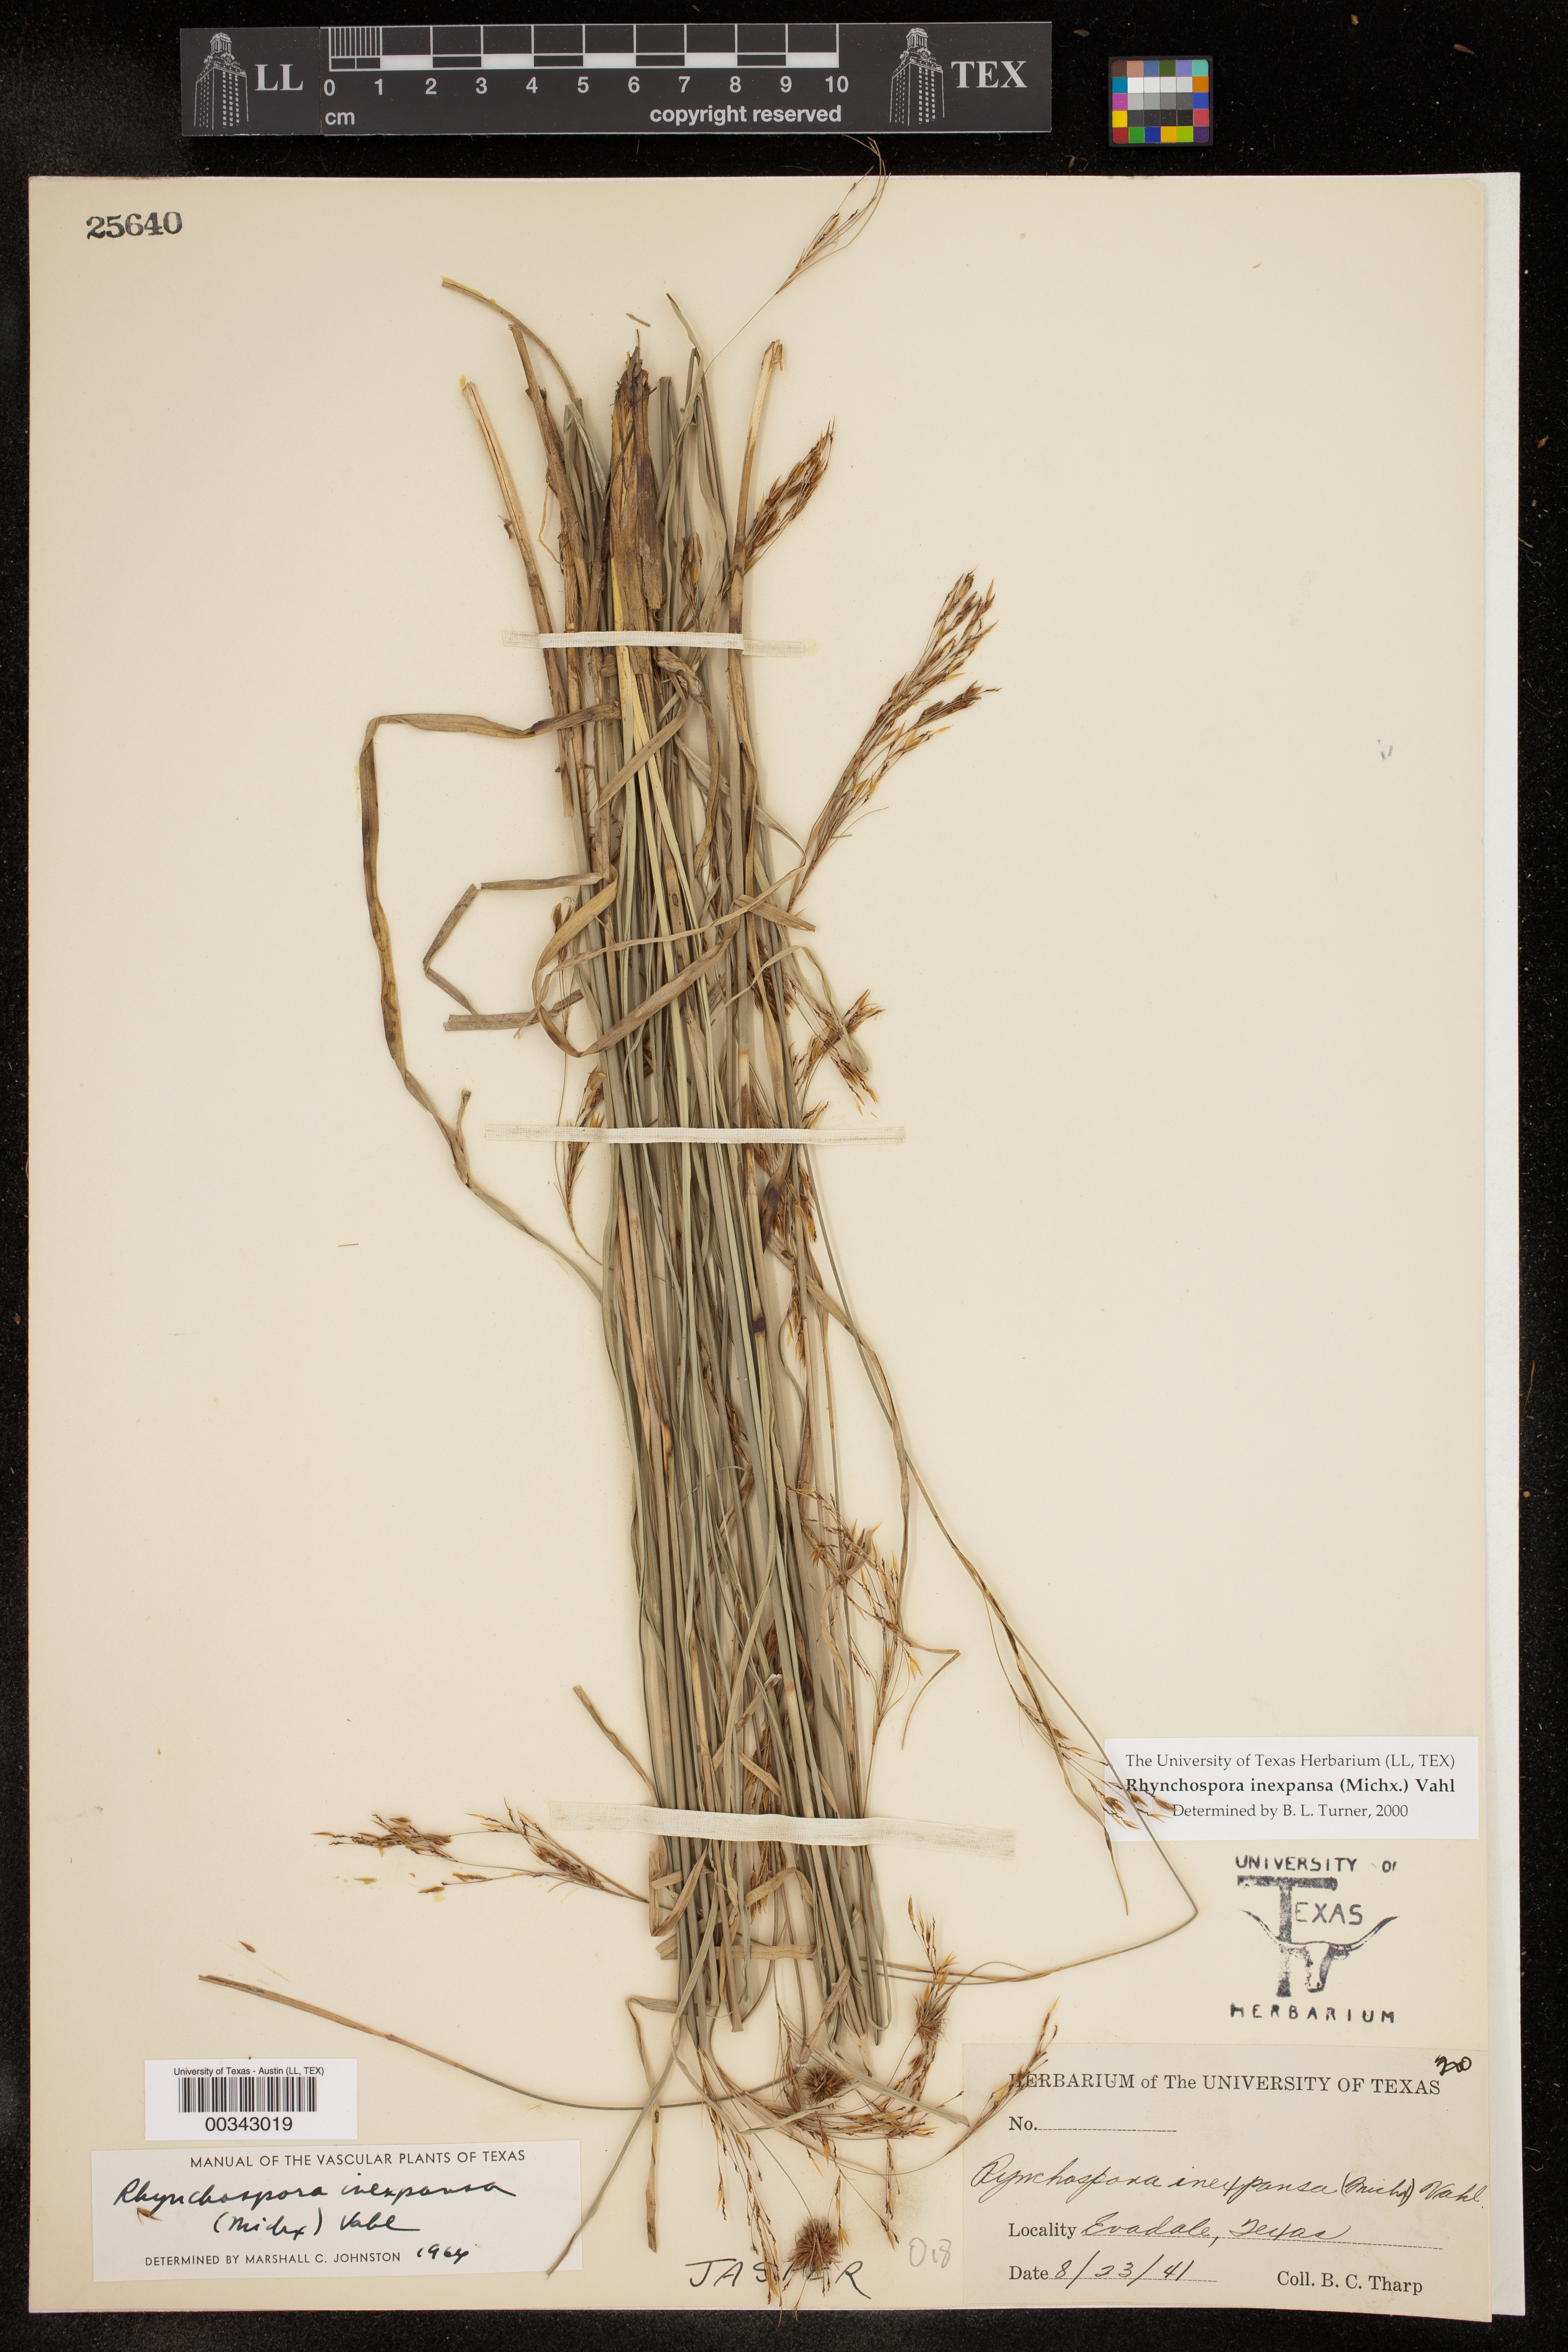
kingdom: Plantae
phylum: Tracheophyta
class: Liliopsida
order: Poales
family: Cyperaceae
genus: Rhynchospora
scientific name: Rhynchospora inexpansa
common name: Nodding beaksedge
